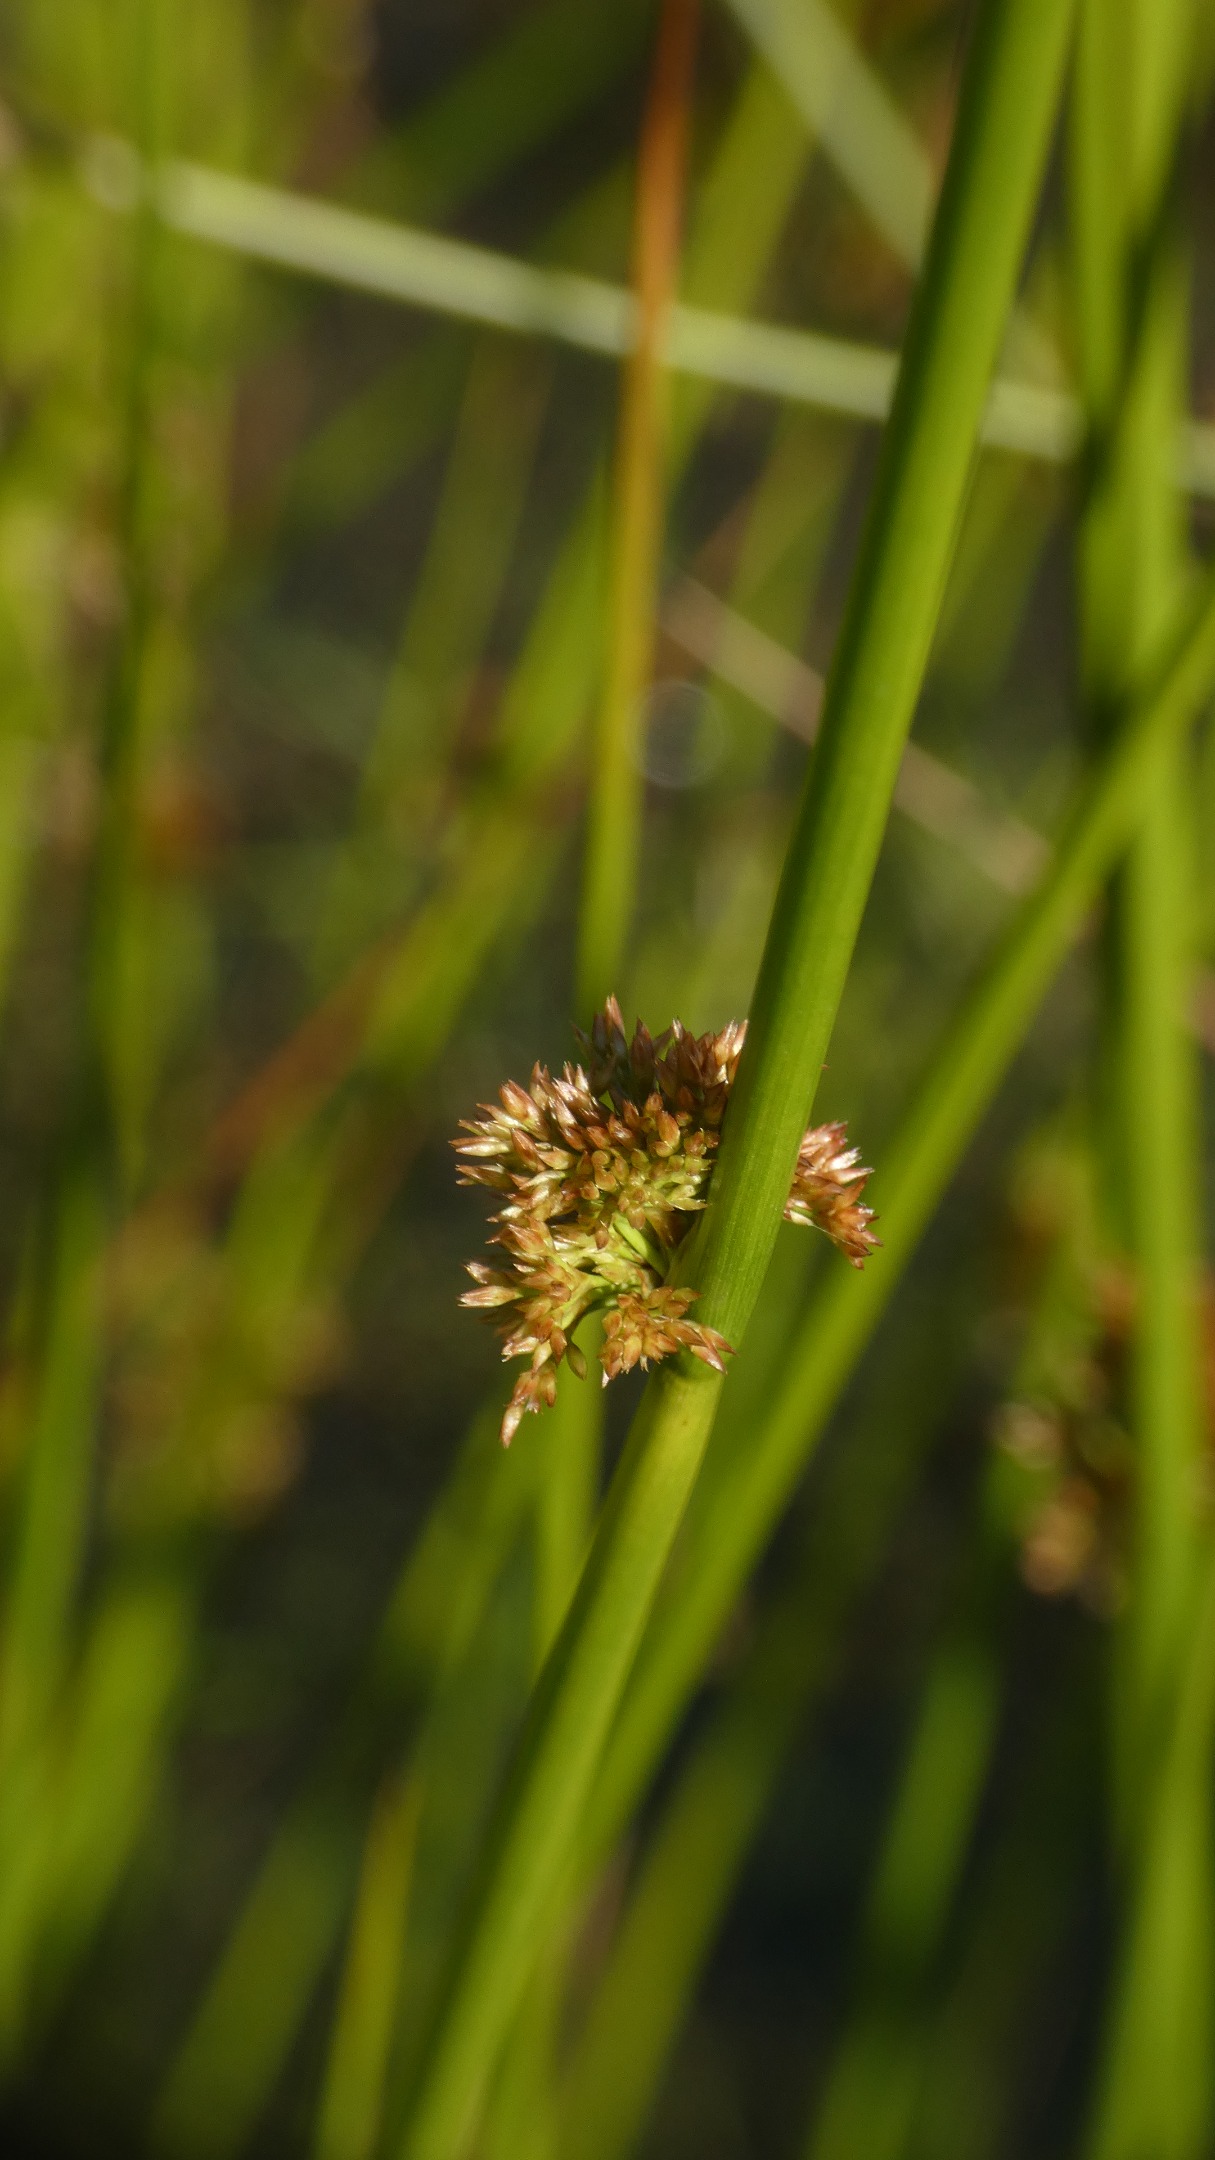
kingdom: Plantae
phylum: Tracheophyta
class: Liliopsida
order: Poales
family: Juncaceae
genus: Juncus
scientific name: Juncus effusus
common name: Lyse-siv
